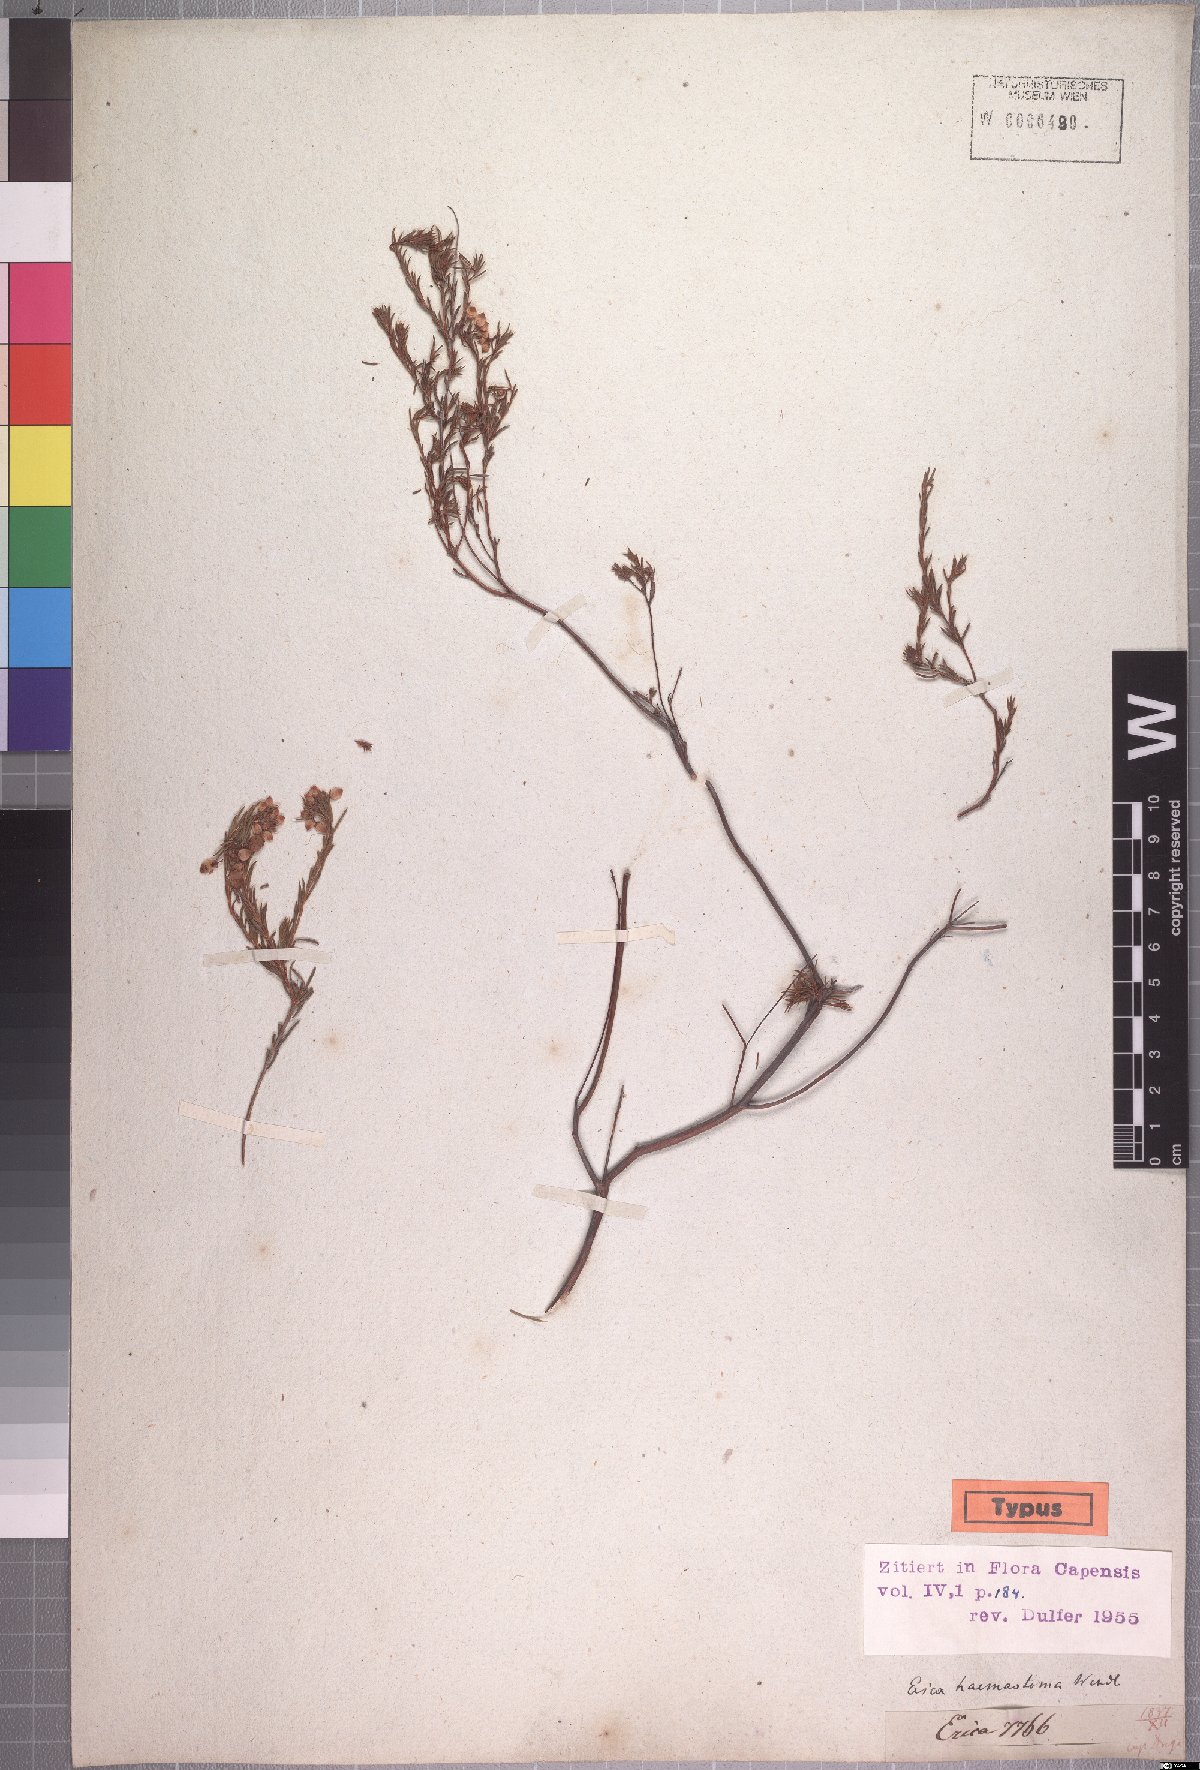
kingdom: Plantae
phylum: Tracheophyta
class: Magnoliopsida
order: Ericales
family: Ericaceae
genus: Erica
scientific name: Erica haemastoma
